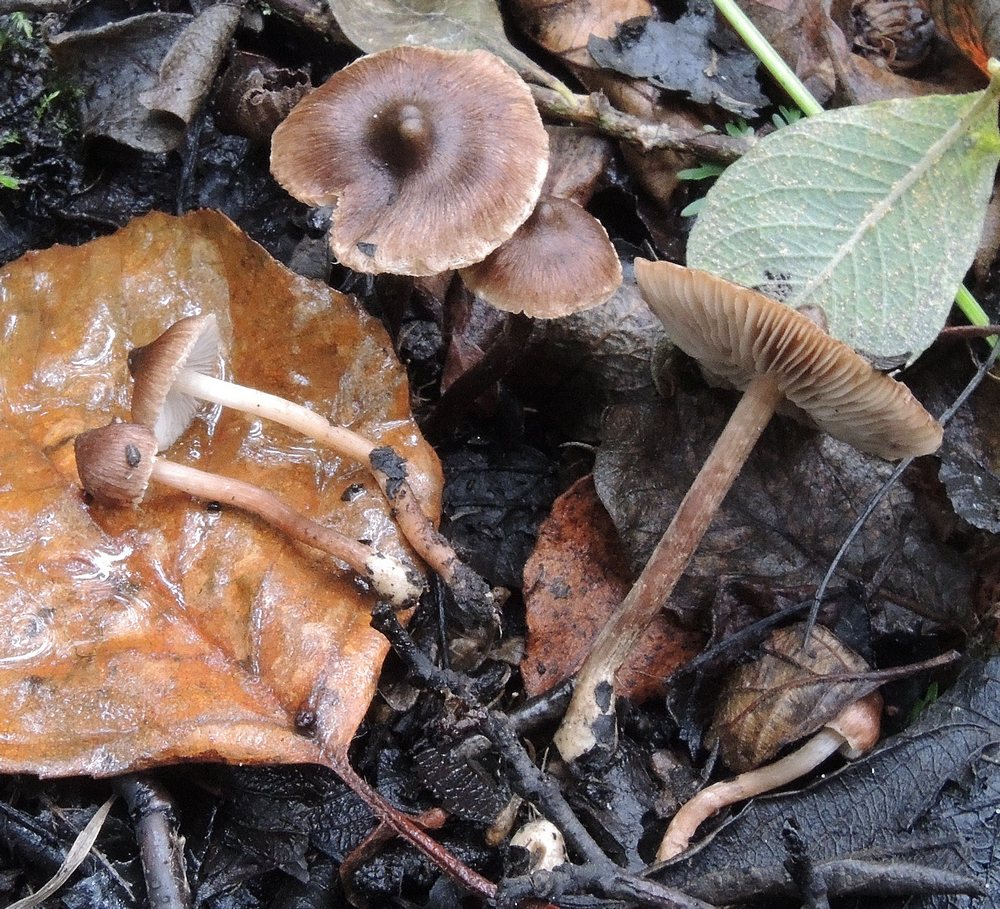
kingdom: Fungi
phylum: Basidiomycota
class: Agaricomycetes
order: Agaricales
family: Inocybaceae
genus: Inocybe
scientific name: Inocybe acuta
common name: papil-trævlhat
